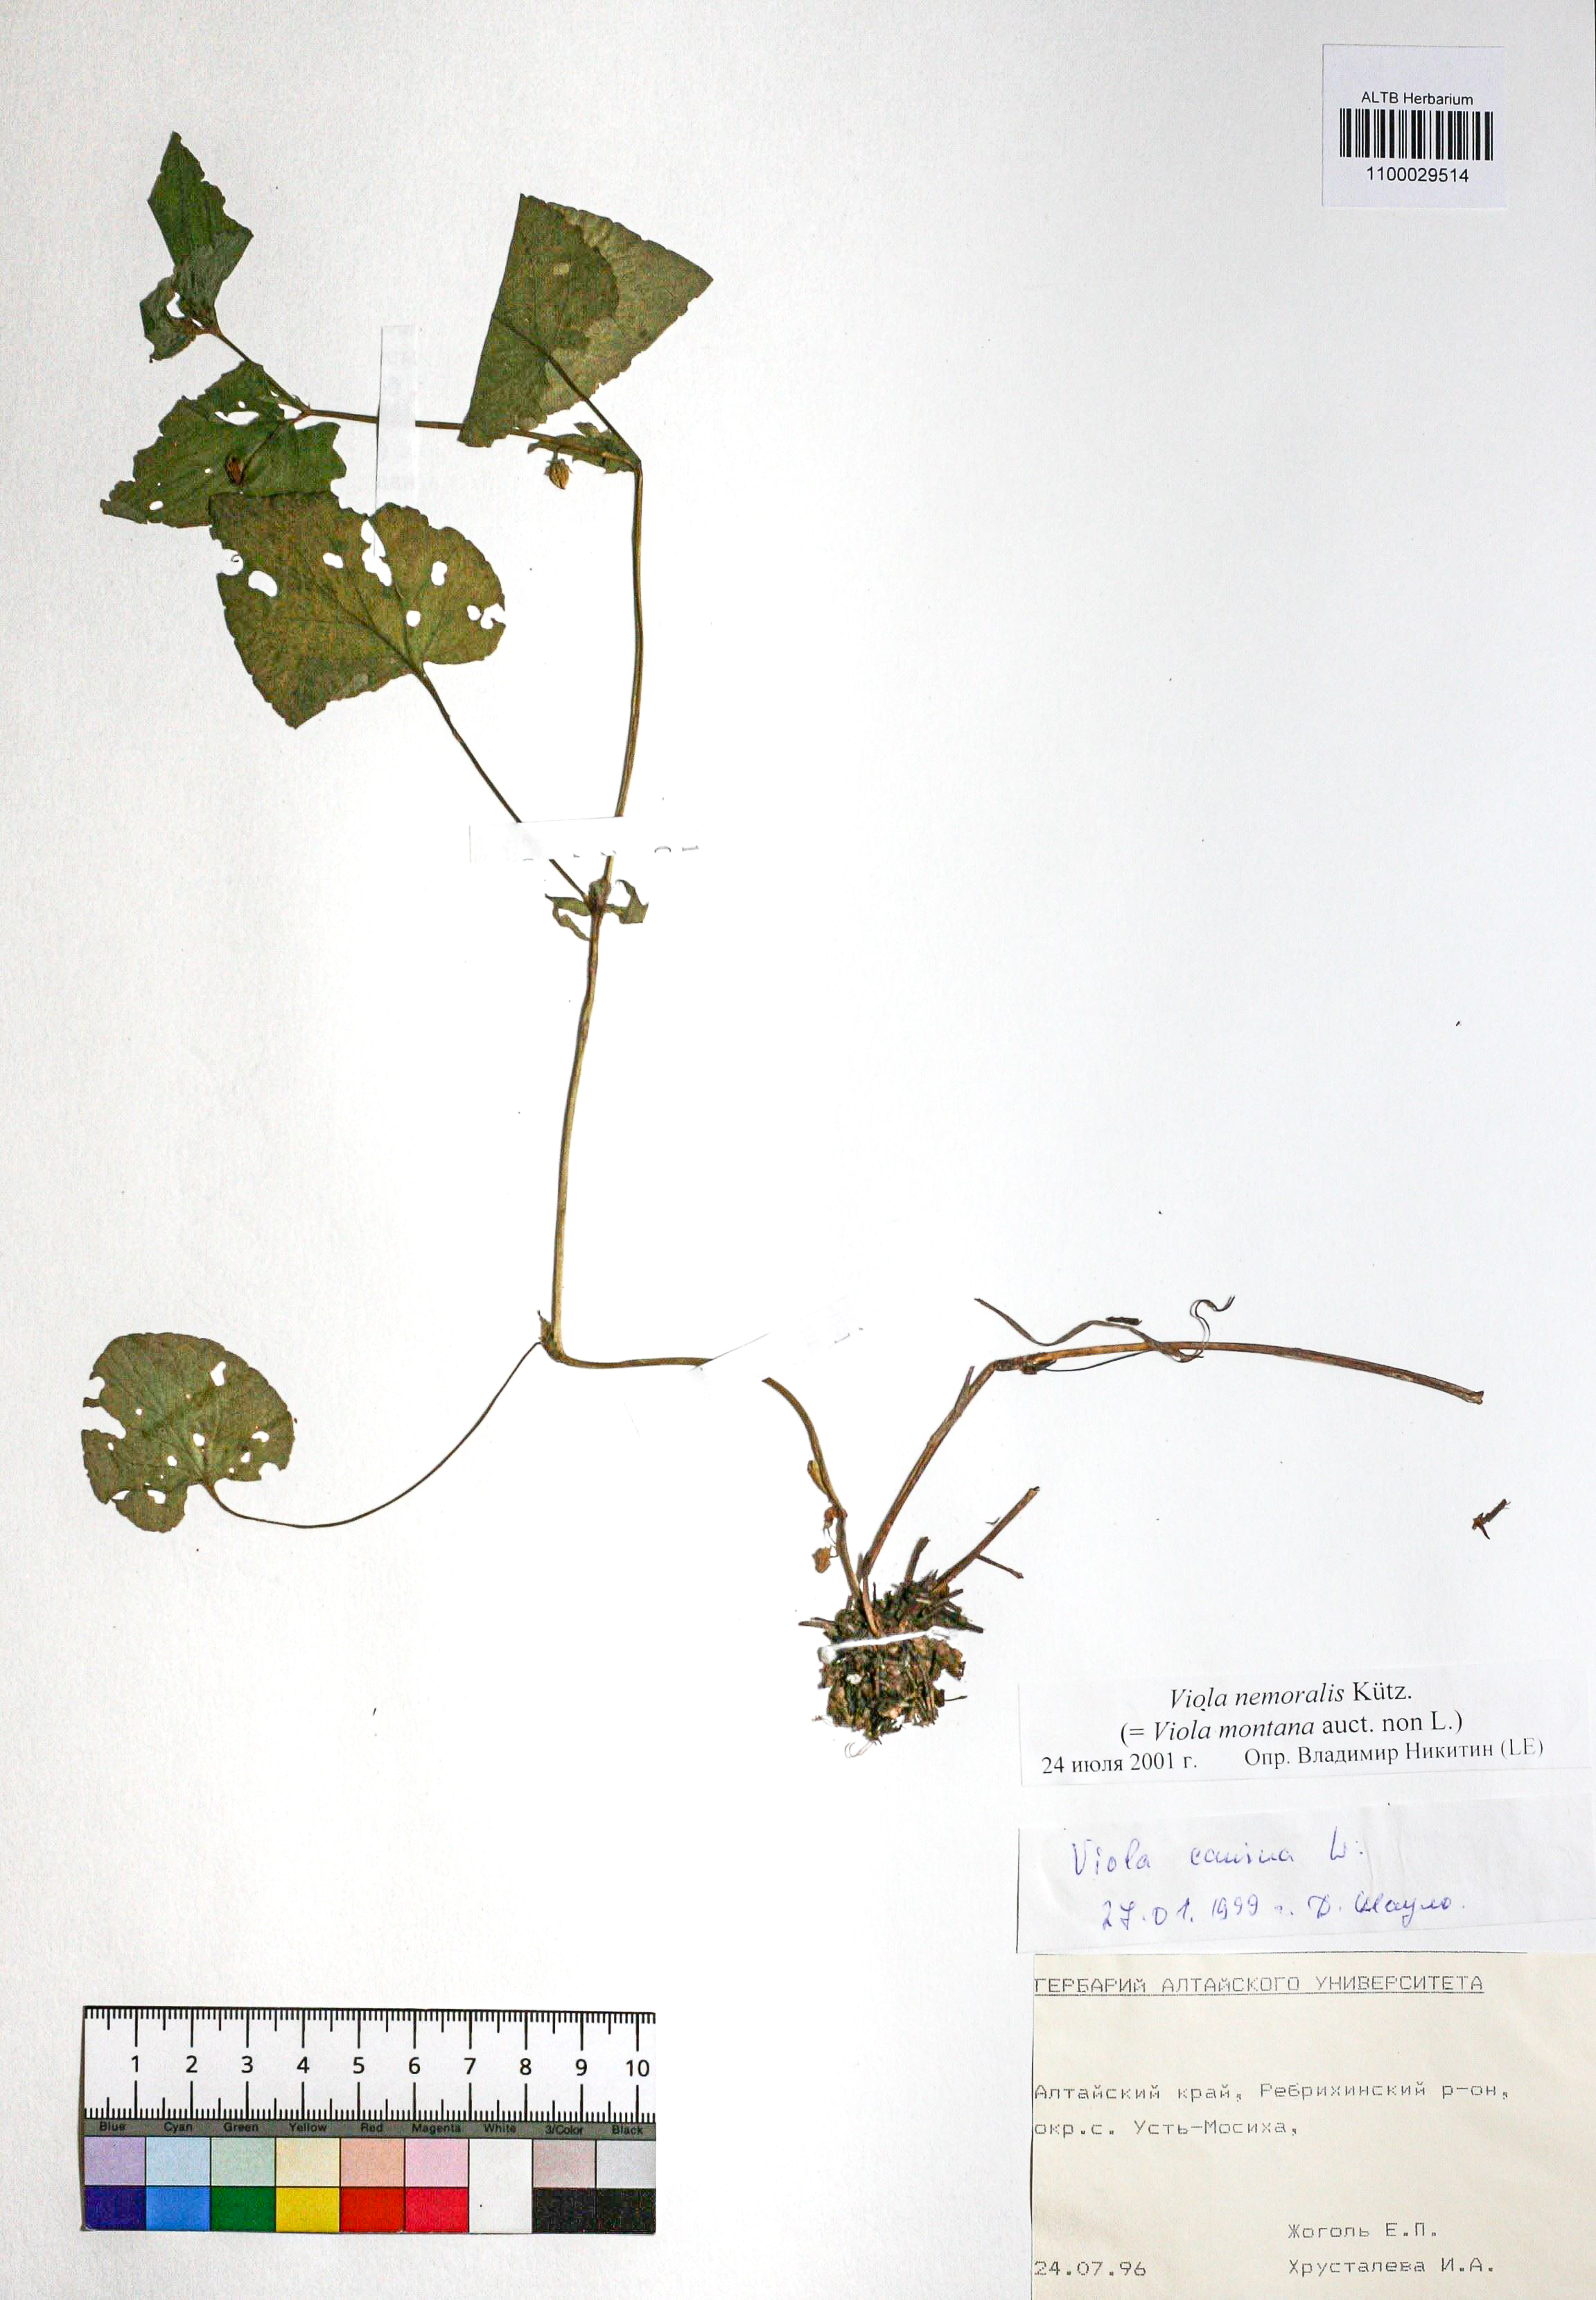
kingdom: Plantae
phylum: Tracheophyta
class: Magnoliopsida
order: Malpighiales
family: Violaceae
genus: Viola
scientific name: Viola ruppii
